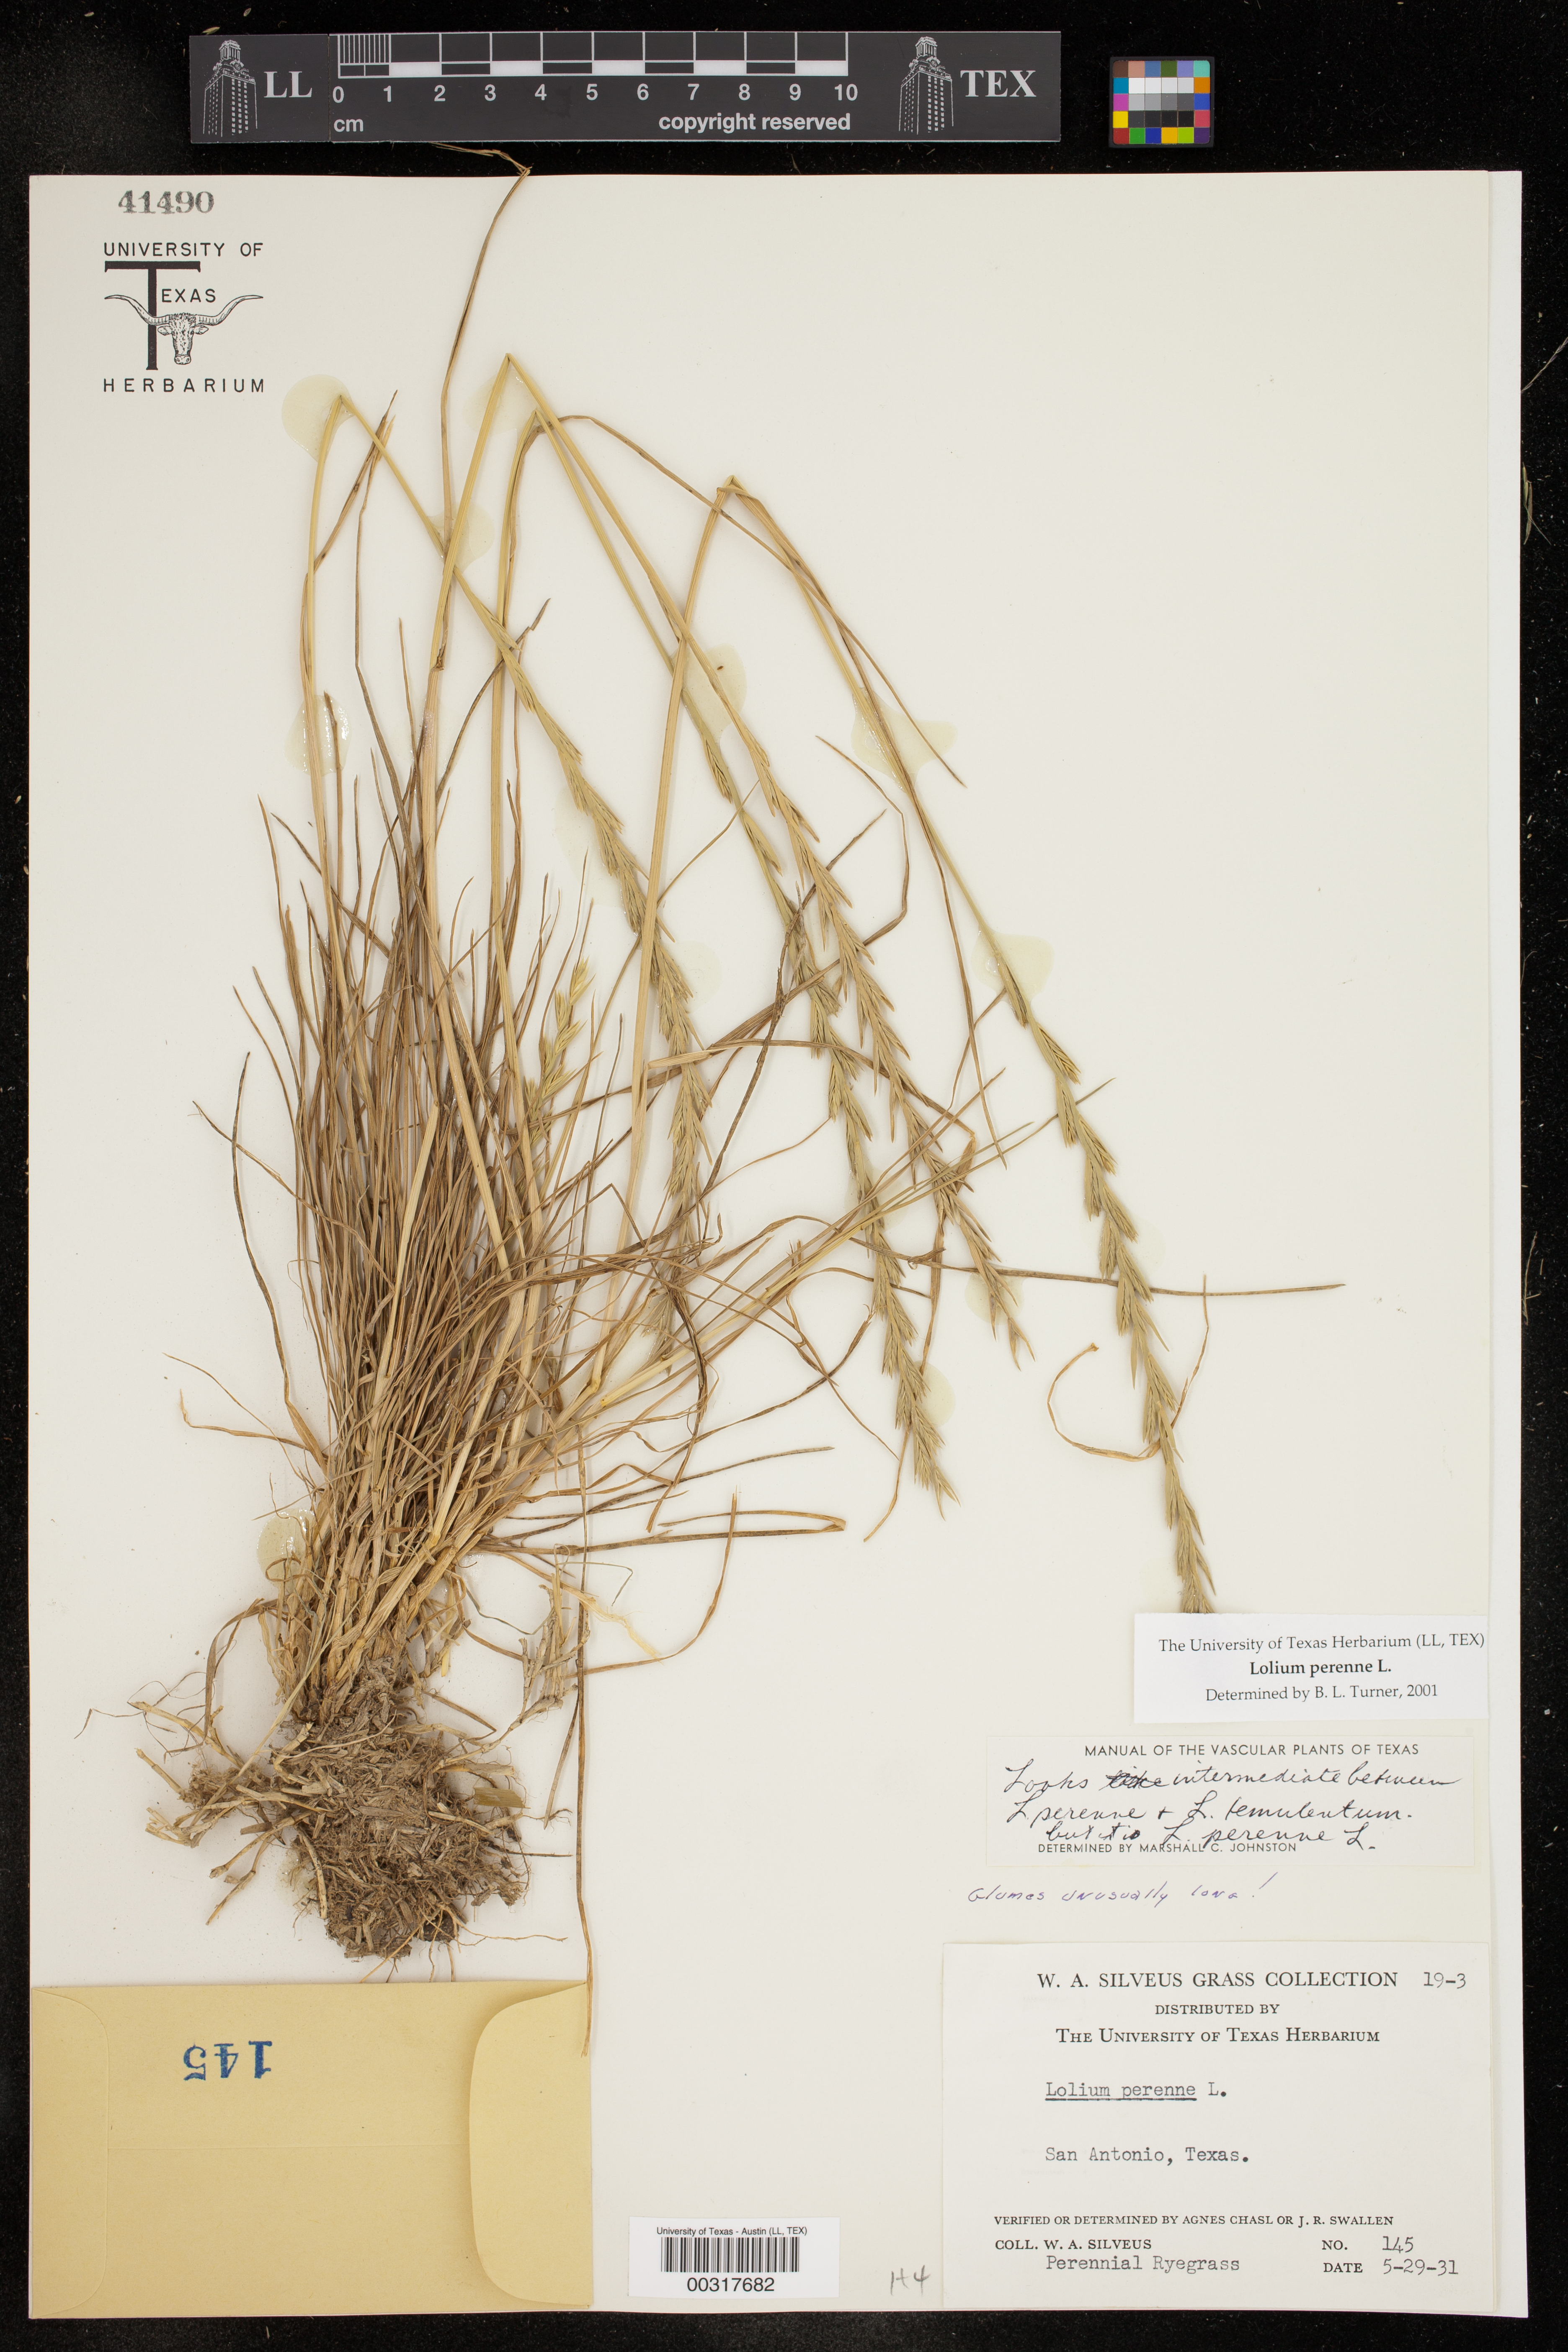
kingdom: Plantae
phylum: Tracheophyta
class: Liliopsida
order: Poales
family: Poaceae
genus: Lolium
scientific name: Lolium perenne
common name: Perennial ryegrass
